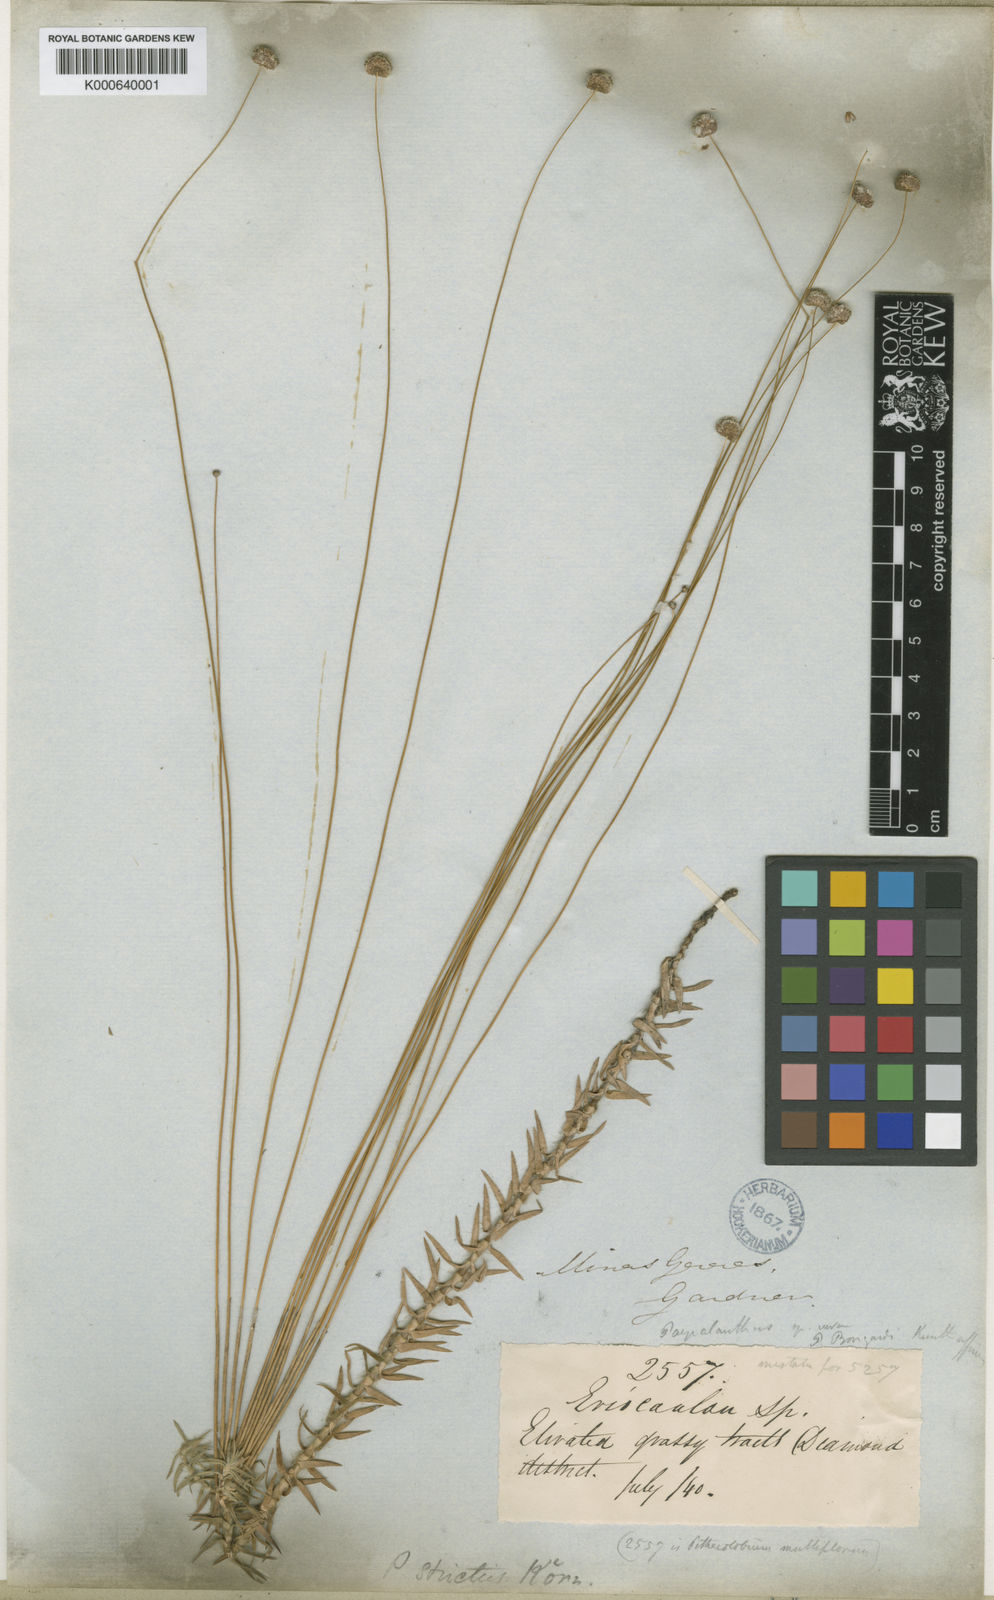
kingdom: Plantae
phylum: Tracheophyta
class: Liliopsida
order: Poales
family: Eriocaulaceae
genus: Paepalanthus
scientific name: Paepalanthus
